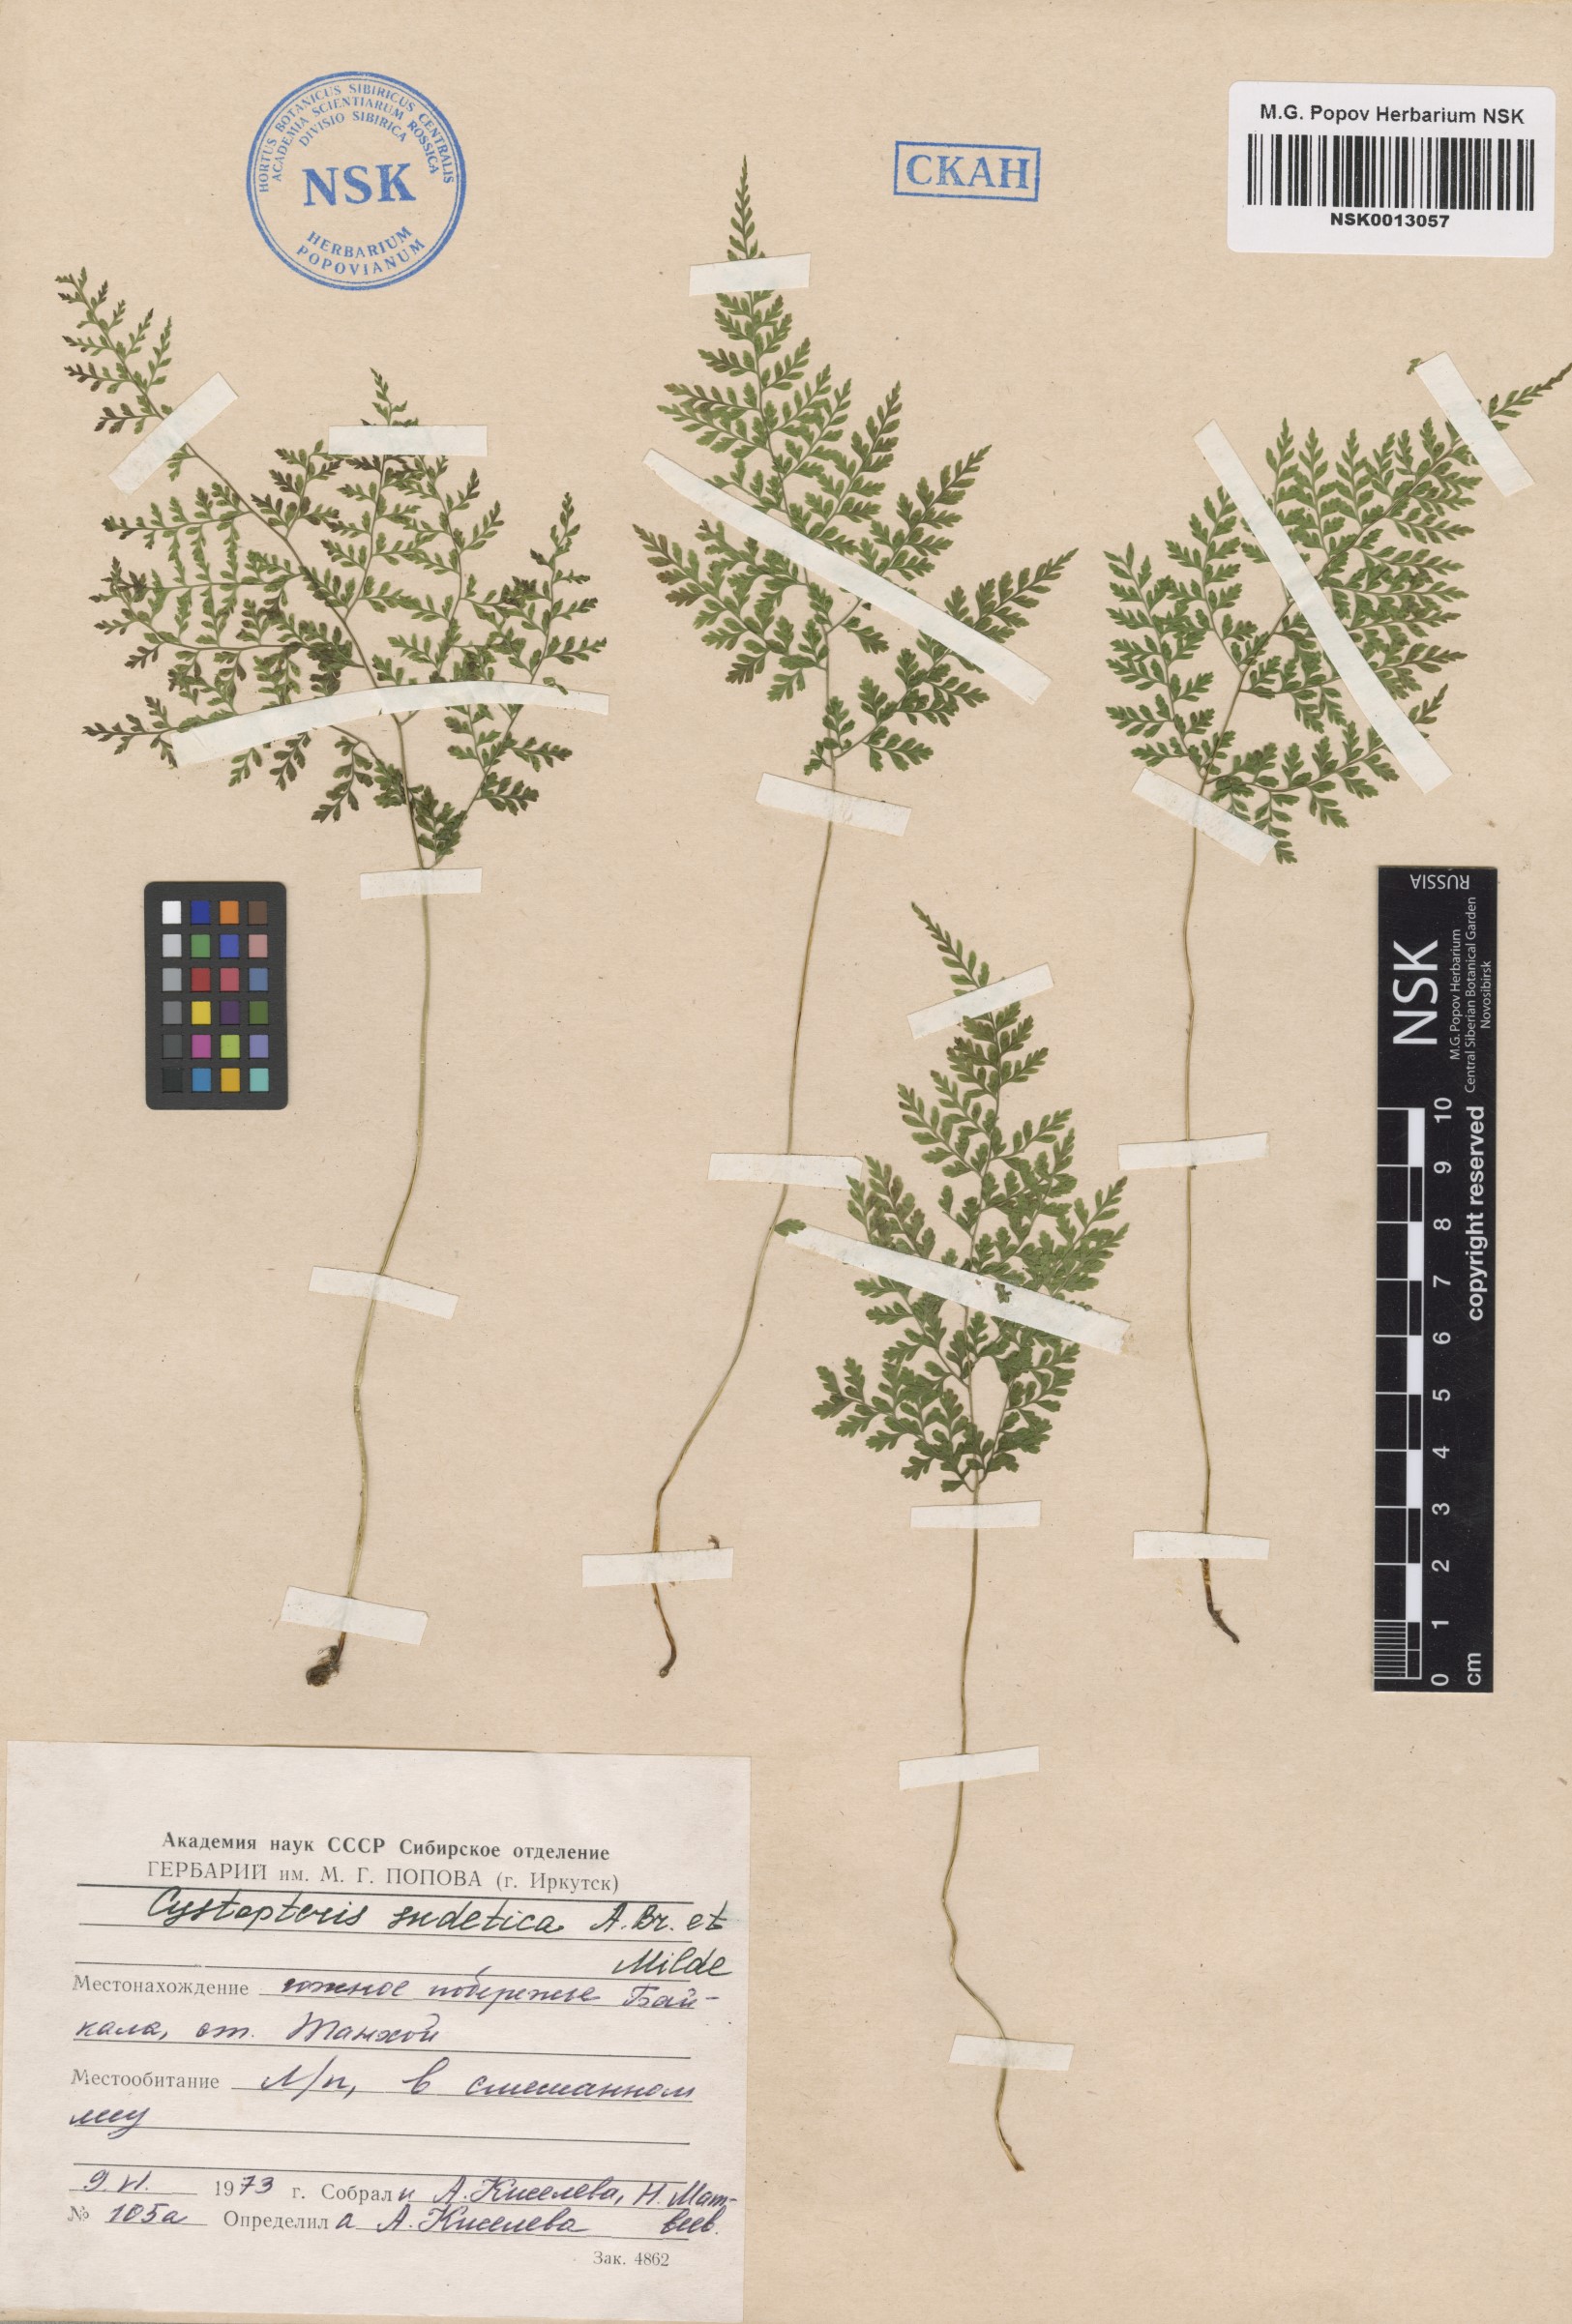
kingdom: Plantae
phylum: Tracheophyta
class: Polypodiopsida
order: Polypodiales
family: Cystopteridaceae
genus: Cystopteris
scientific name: Cystopteris sudetica
